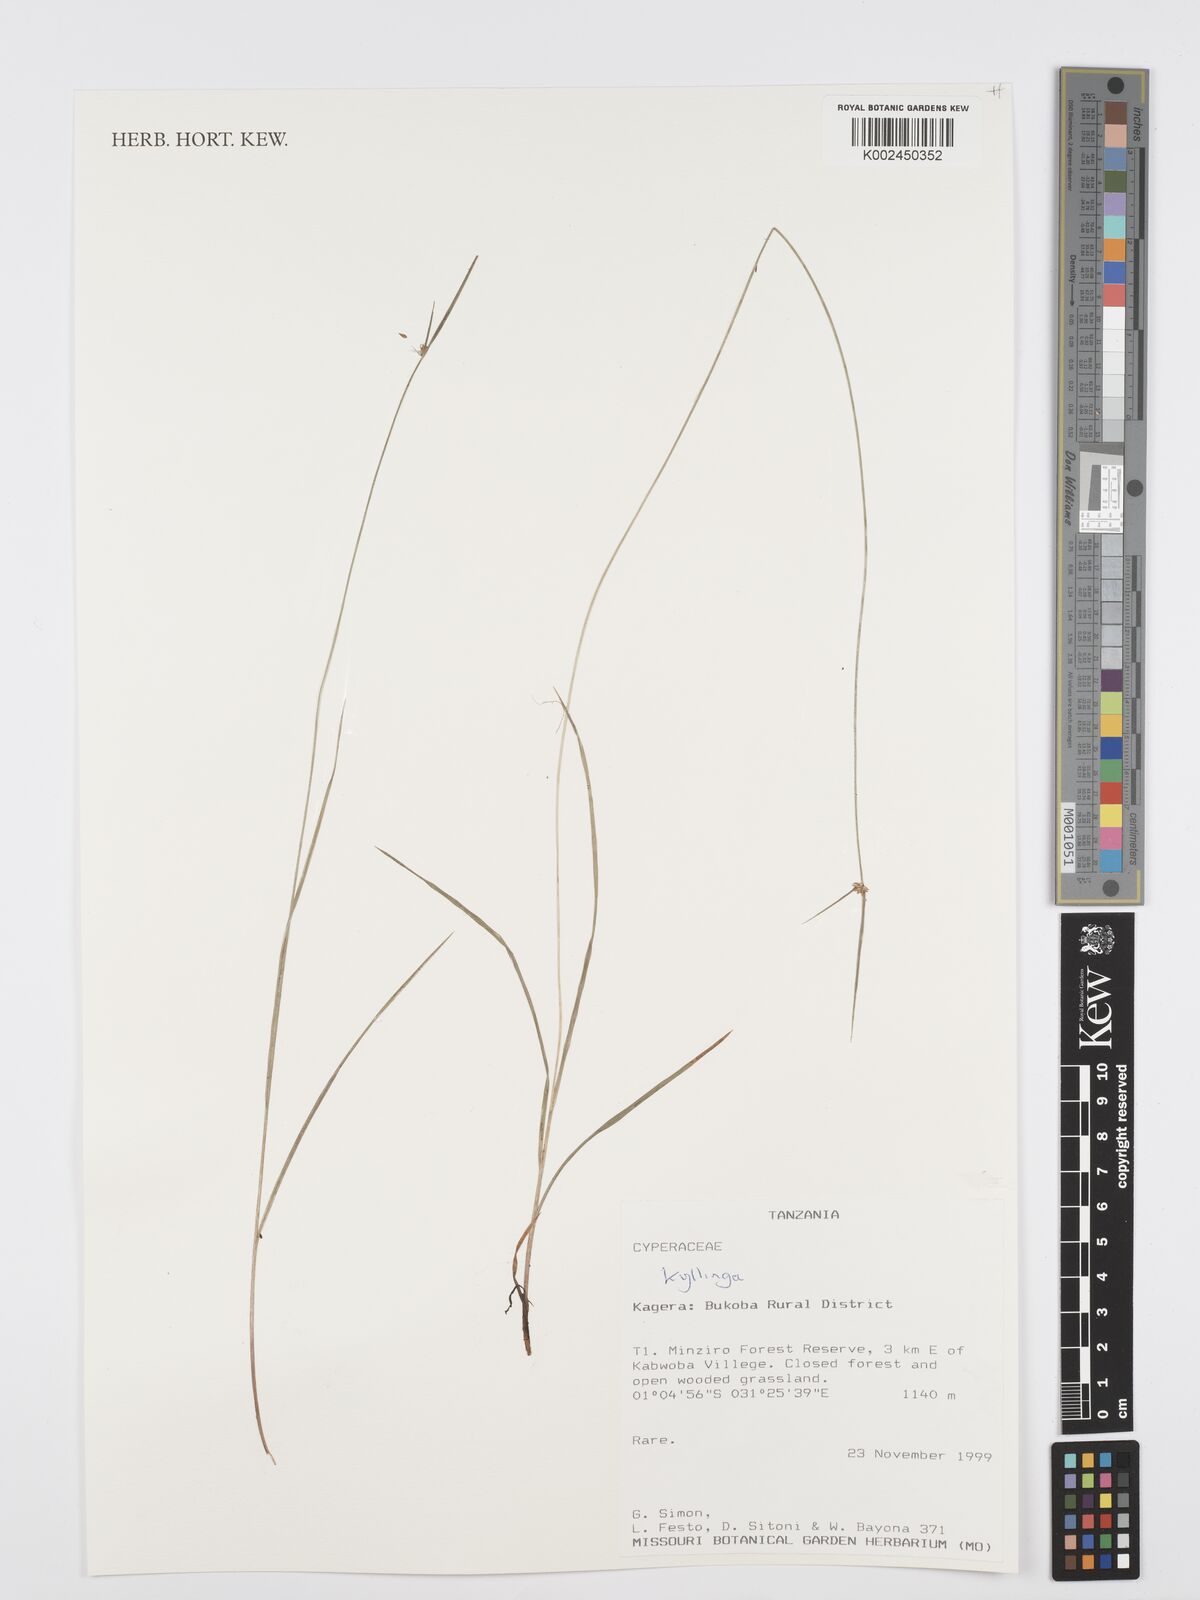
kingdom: Plantae
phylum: Tracheophyta
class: Liliopsida
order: Poales
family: Cyperaceae
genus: Cyperus
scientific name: Cyperus
